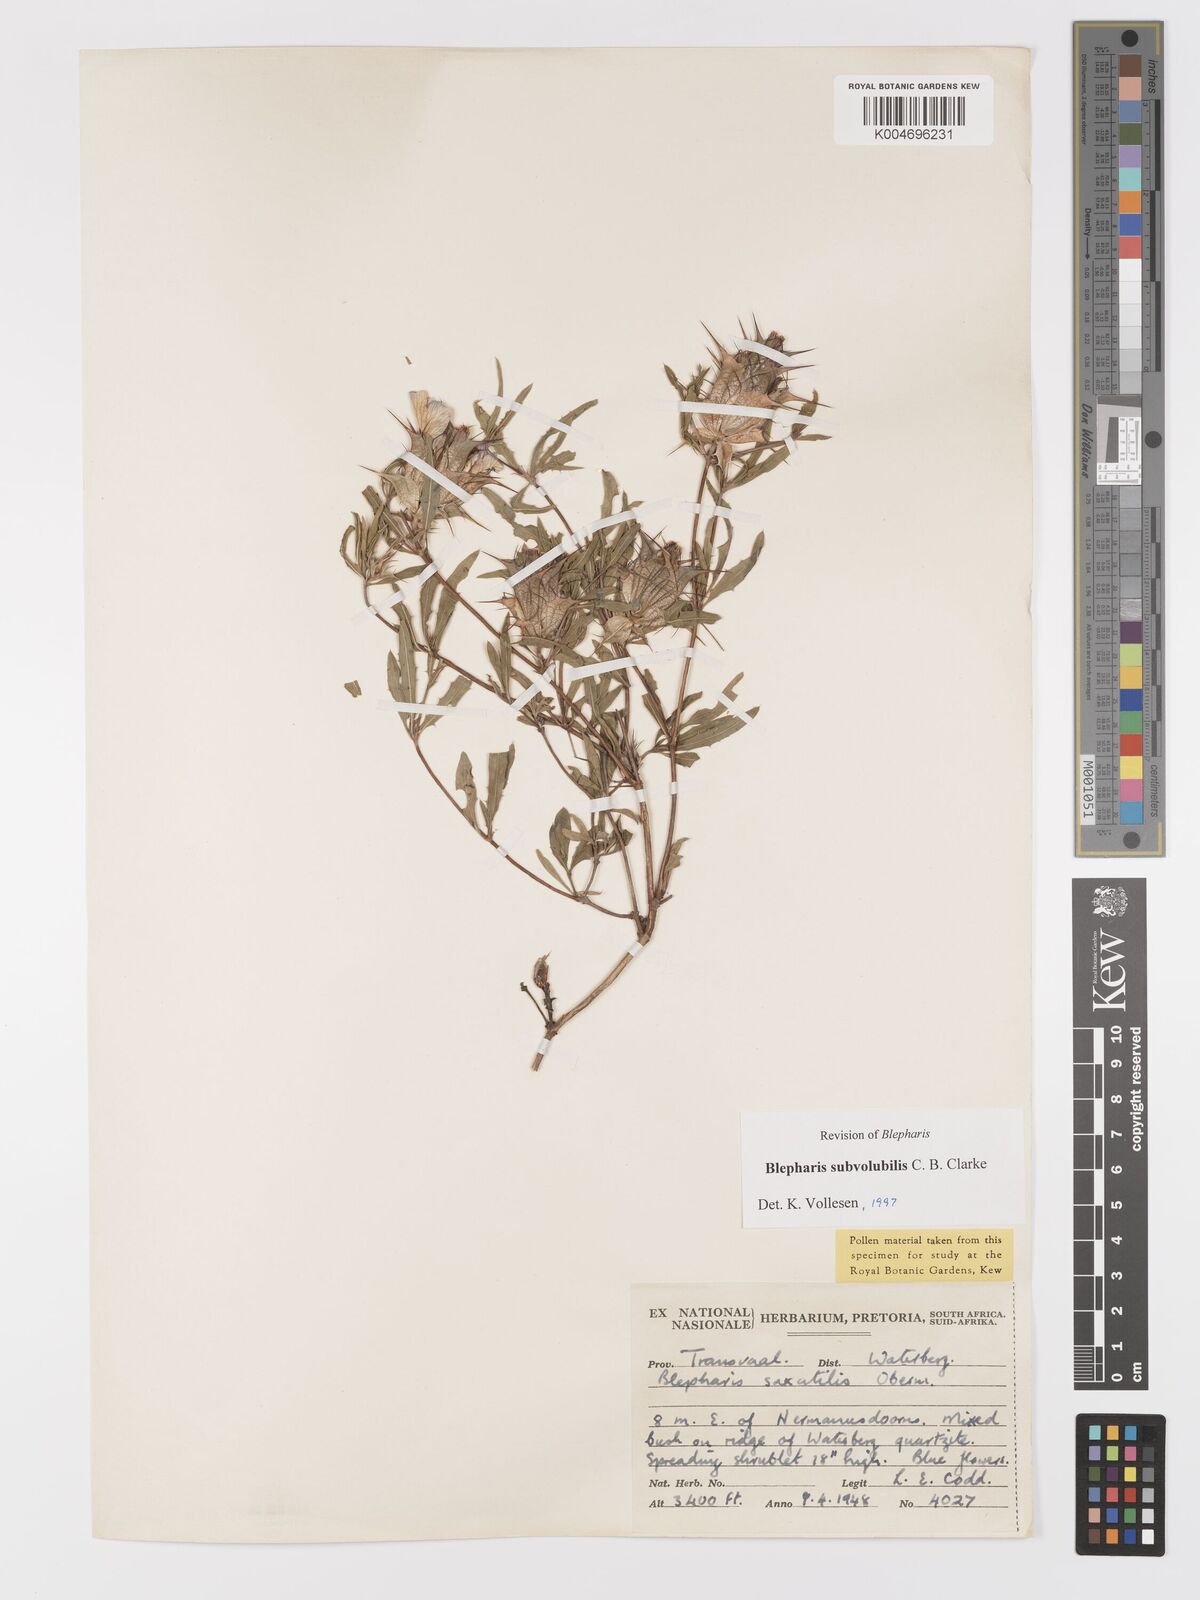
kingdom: Plantae
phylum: Tracheophyta
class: Magnoliopsida
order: Lamiales
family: Acanthaceae
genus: Blepharis
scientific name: Blepharis subvolubilis
